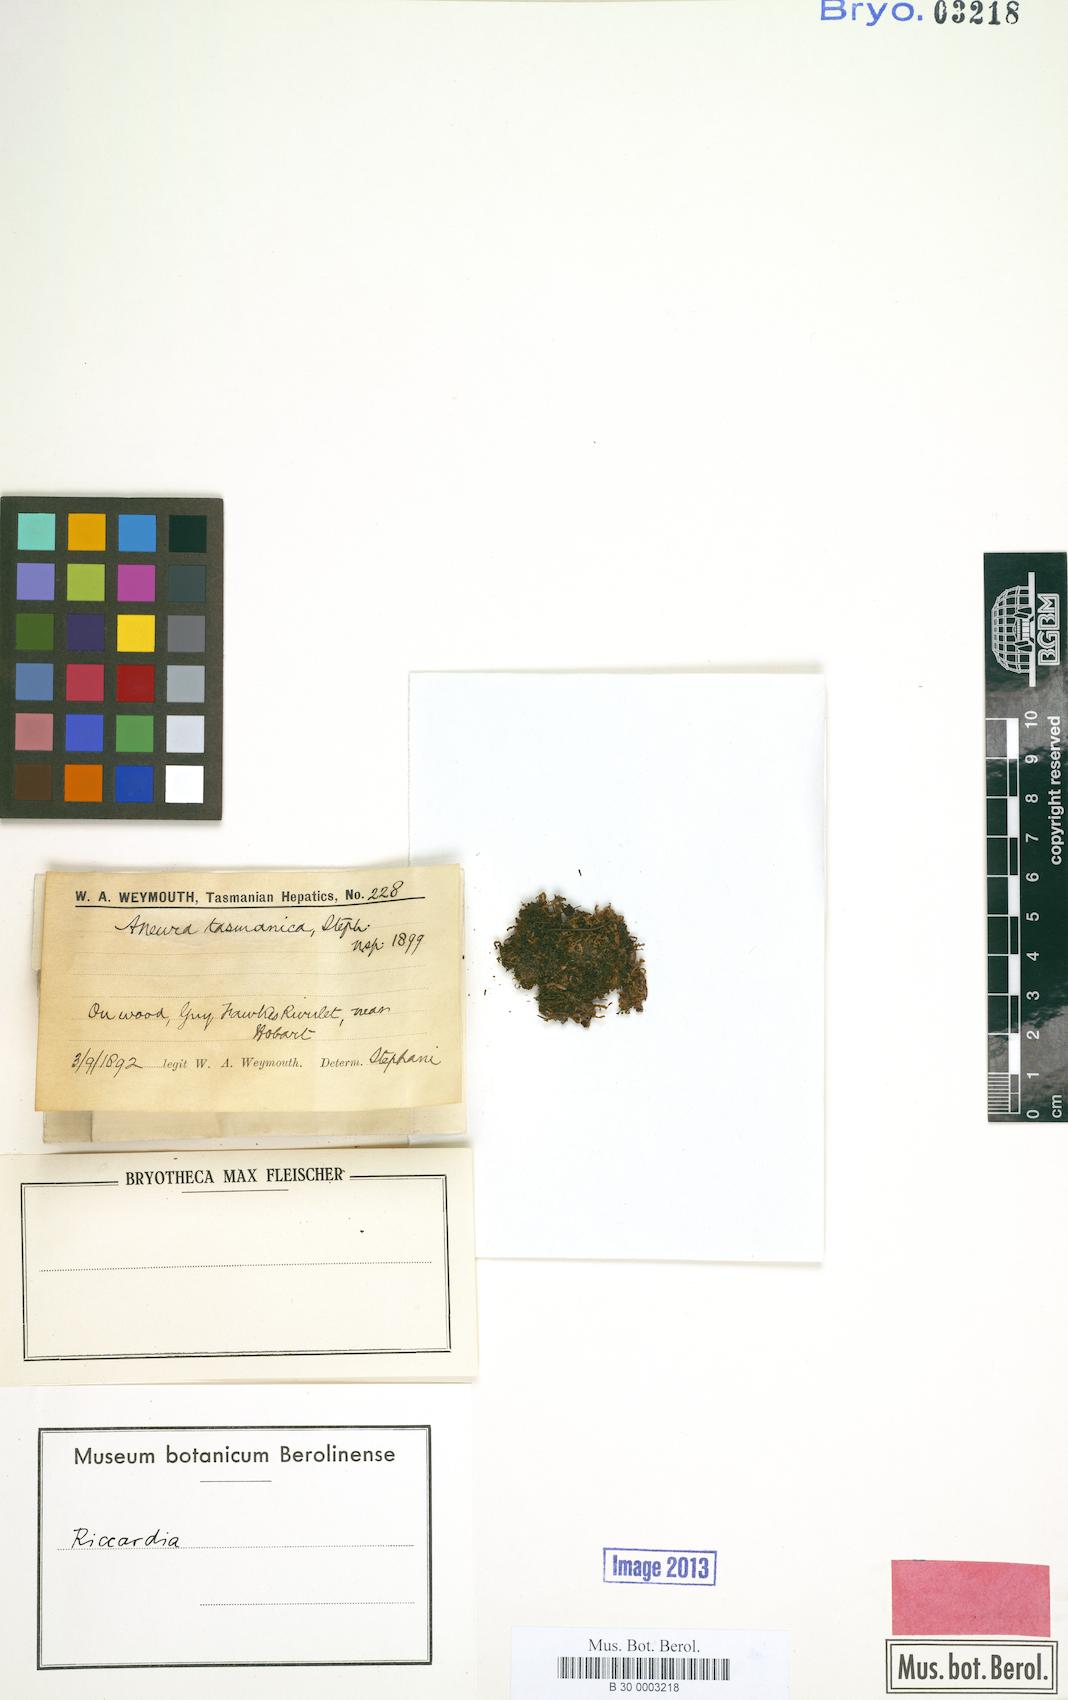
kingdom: Plantae
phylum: Marchantiophyta
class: Jungermanniopsida
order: Metzgeriales
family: Aneuraceae
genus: Riccardia
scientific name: Riccardia
